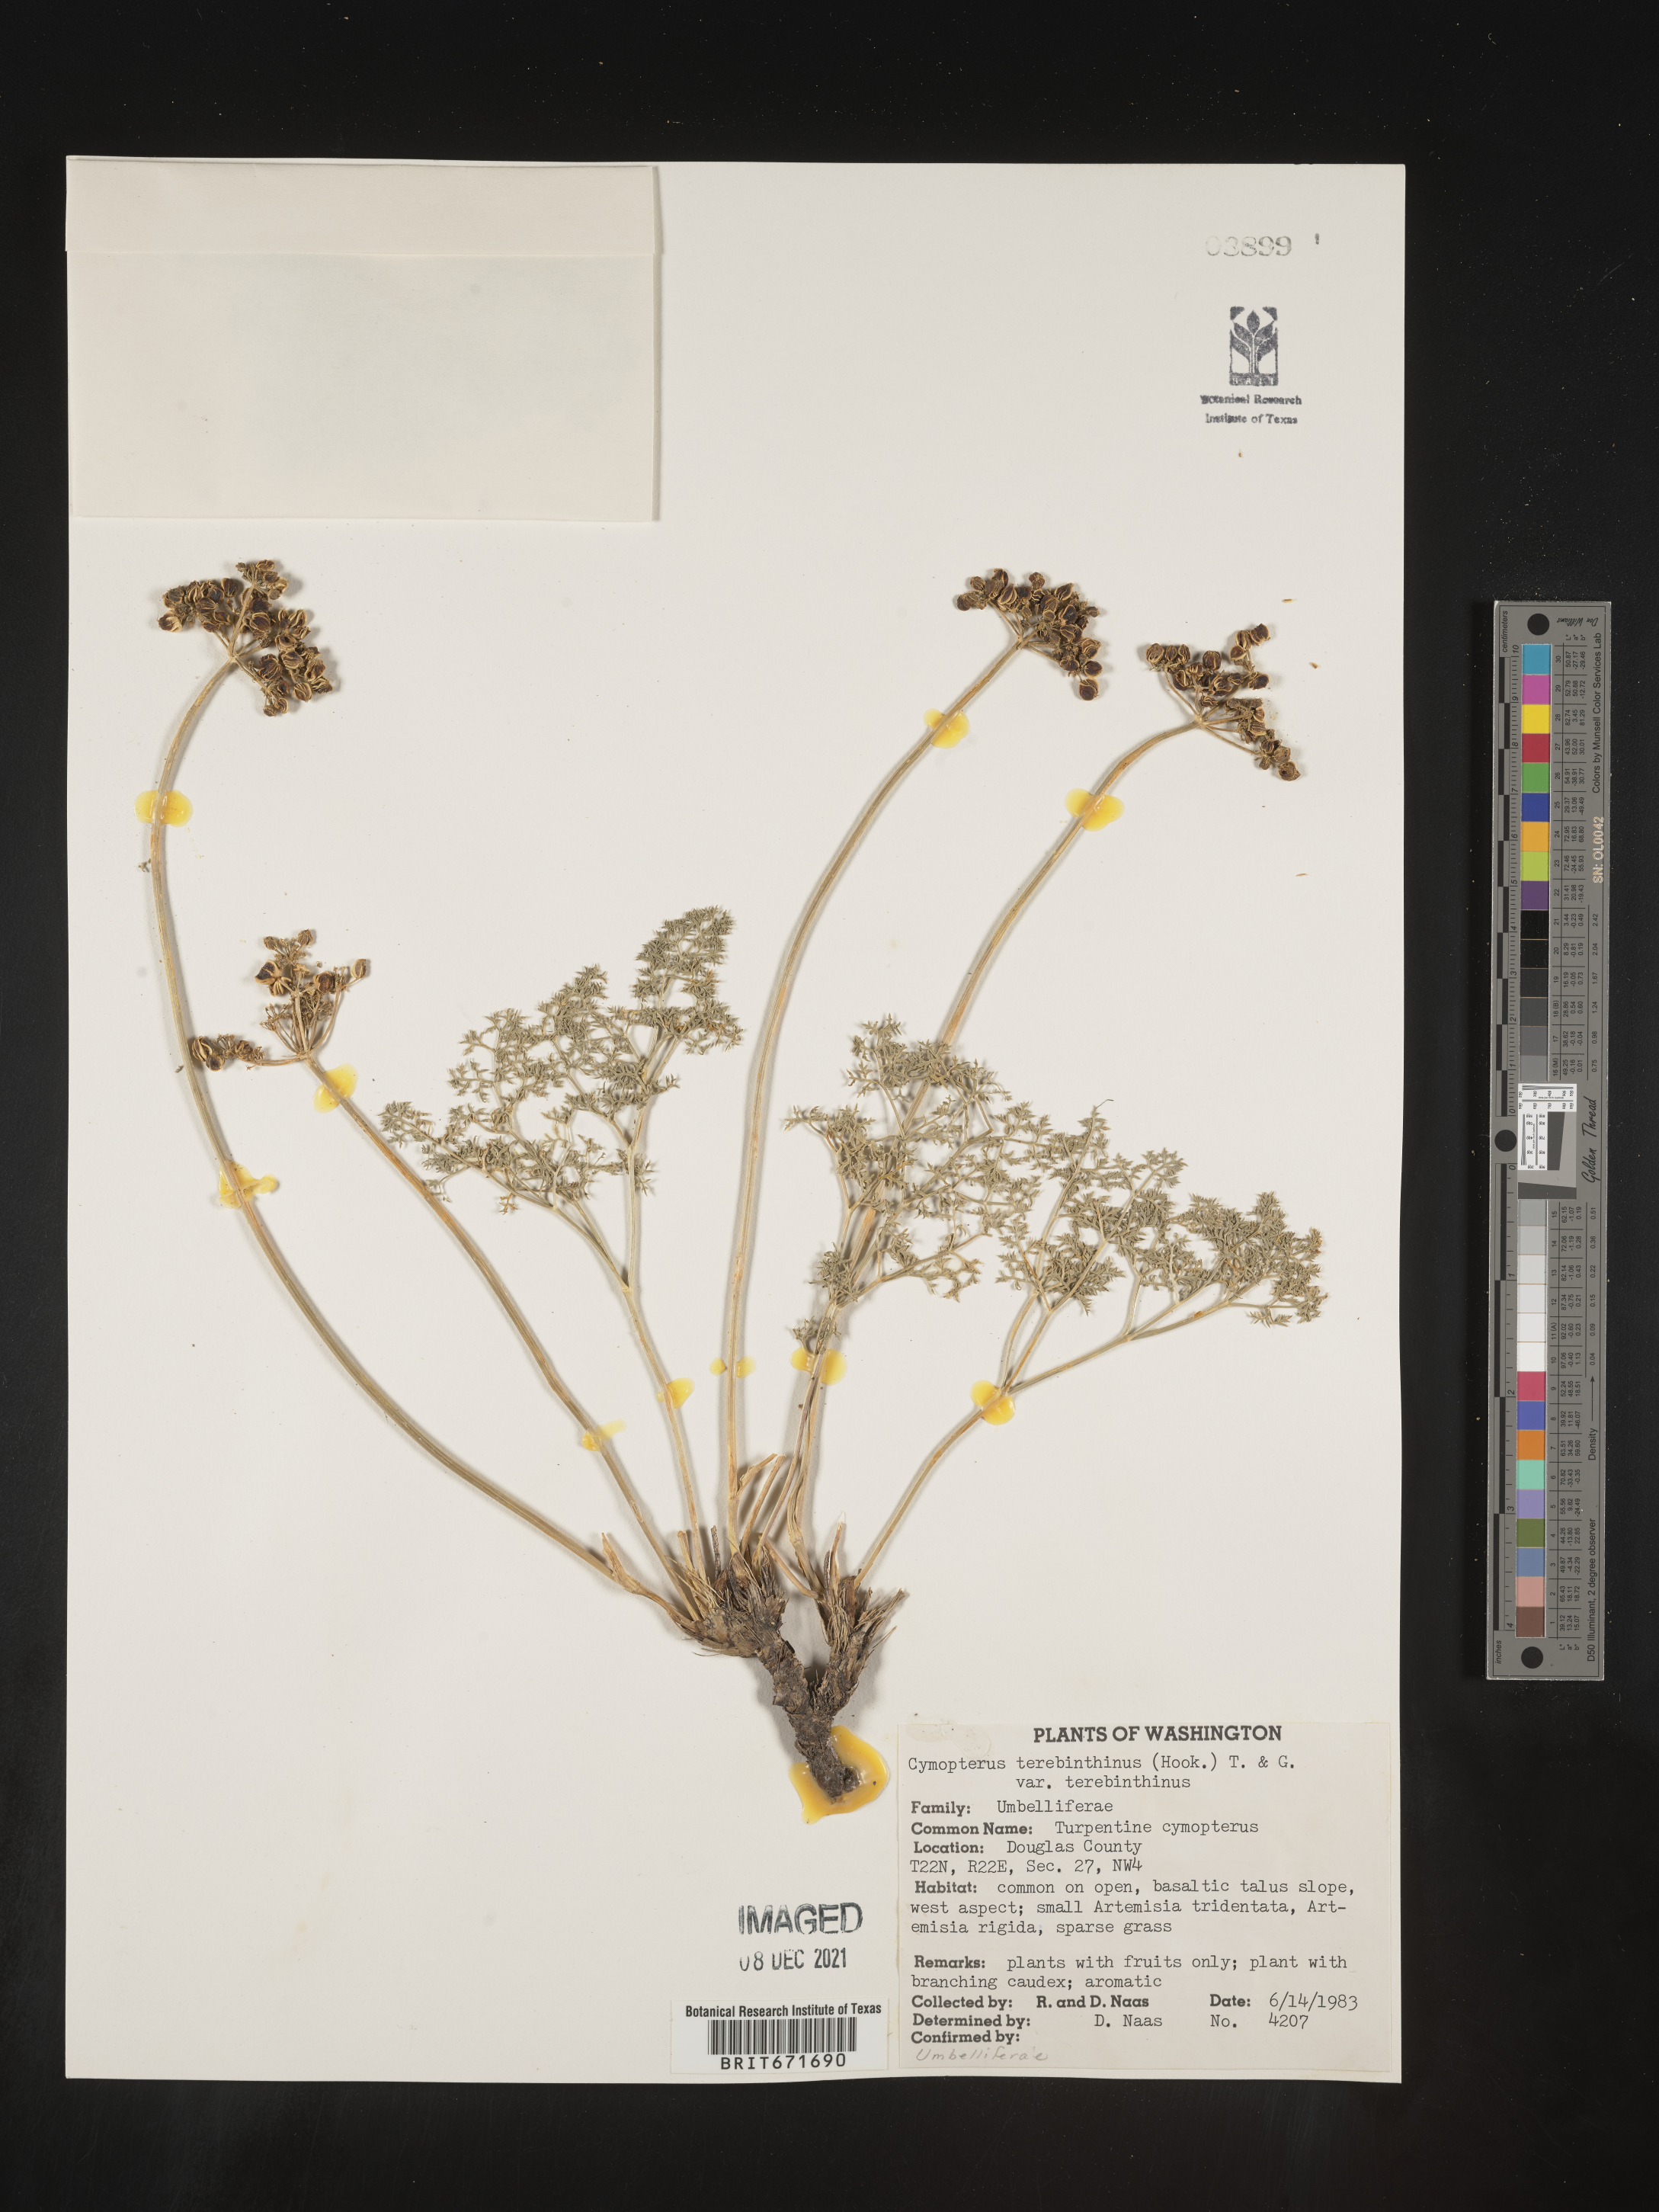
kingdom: Plantae
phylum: Tracheophyta
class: Magnoliopsida
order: Apiales
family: Apiaceae
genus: Pteryxia
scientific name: Pteryxia terebinthina
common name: Turpentine wavewing
